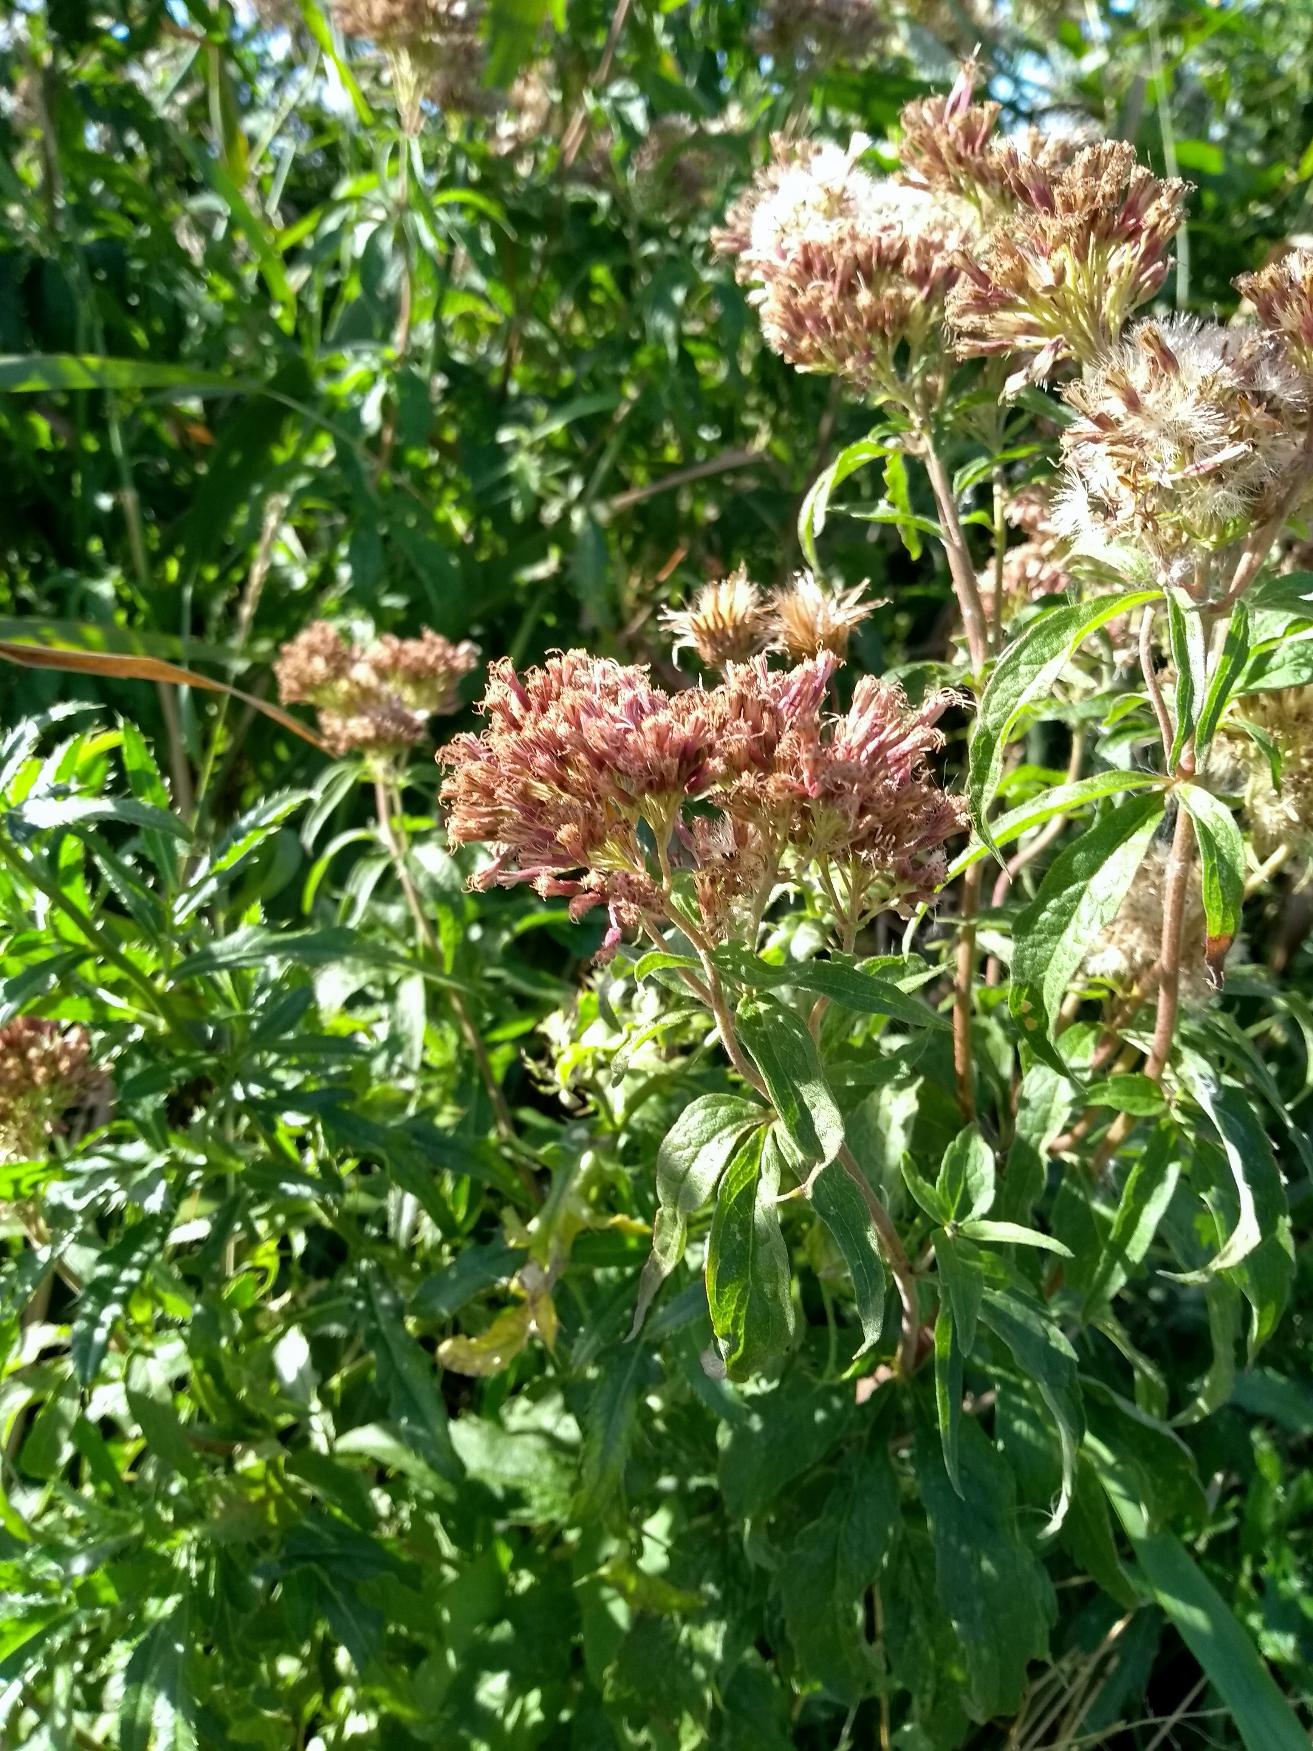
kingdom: Plantae
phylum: Tracheophyta
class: Magnoliopsida
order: Asterales
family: Asteraceae
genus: Eupatorium
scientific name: Eupatorium cannabinum
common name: Hjortetrøst
